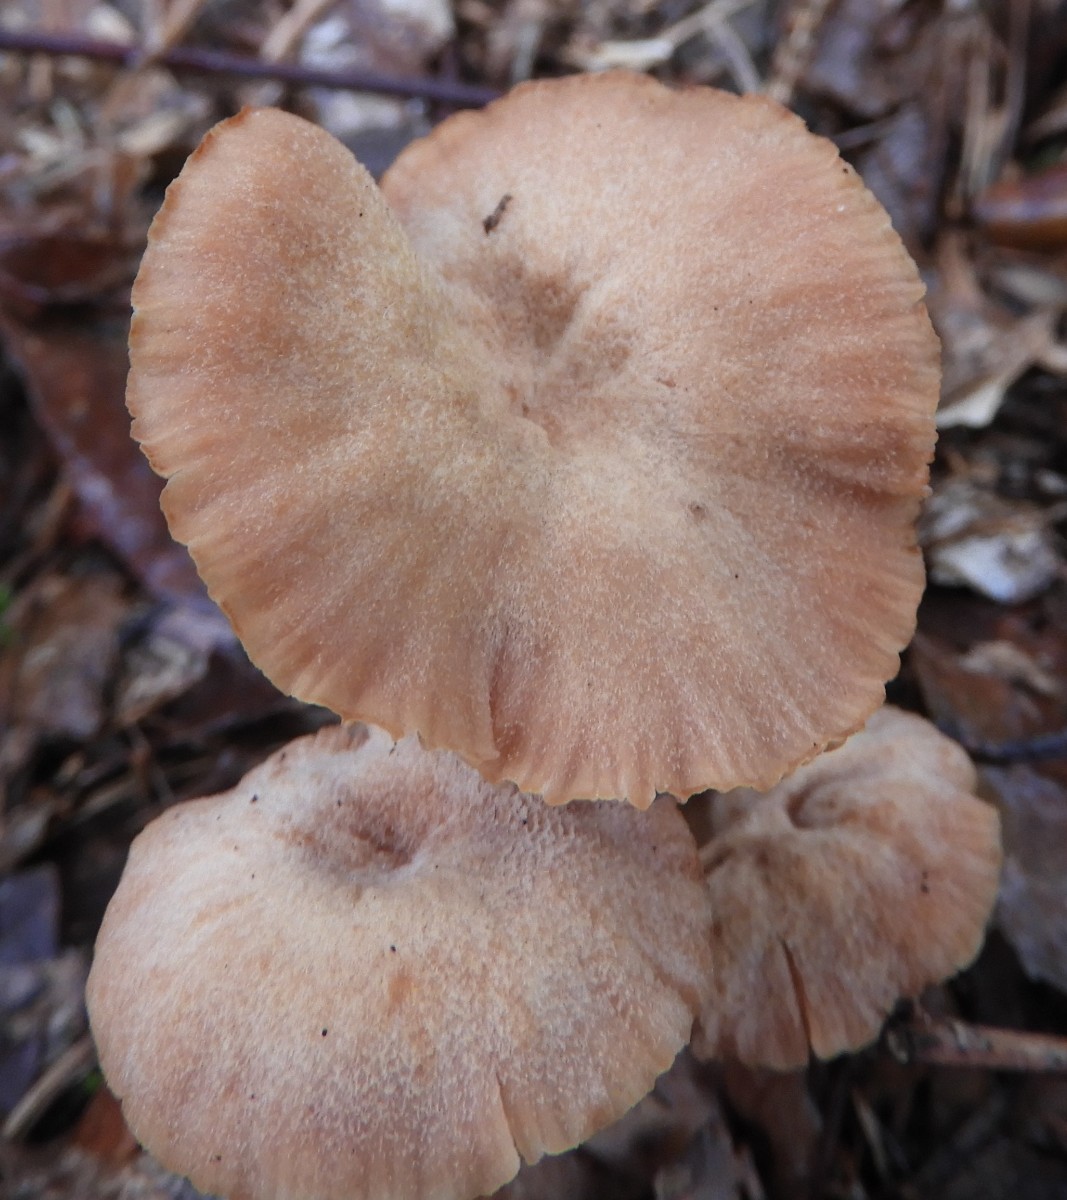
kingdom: Fungi
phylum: Basidiomycota
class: Agaricomycetes
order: Agaricales
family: Hydnangiaceae
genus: Laccaria
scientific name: Laccaria proxima
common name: stor ametysthat
